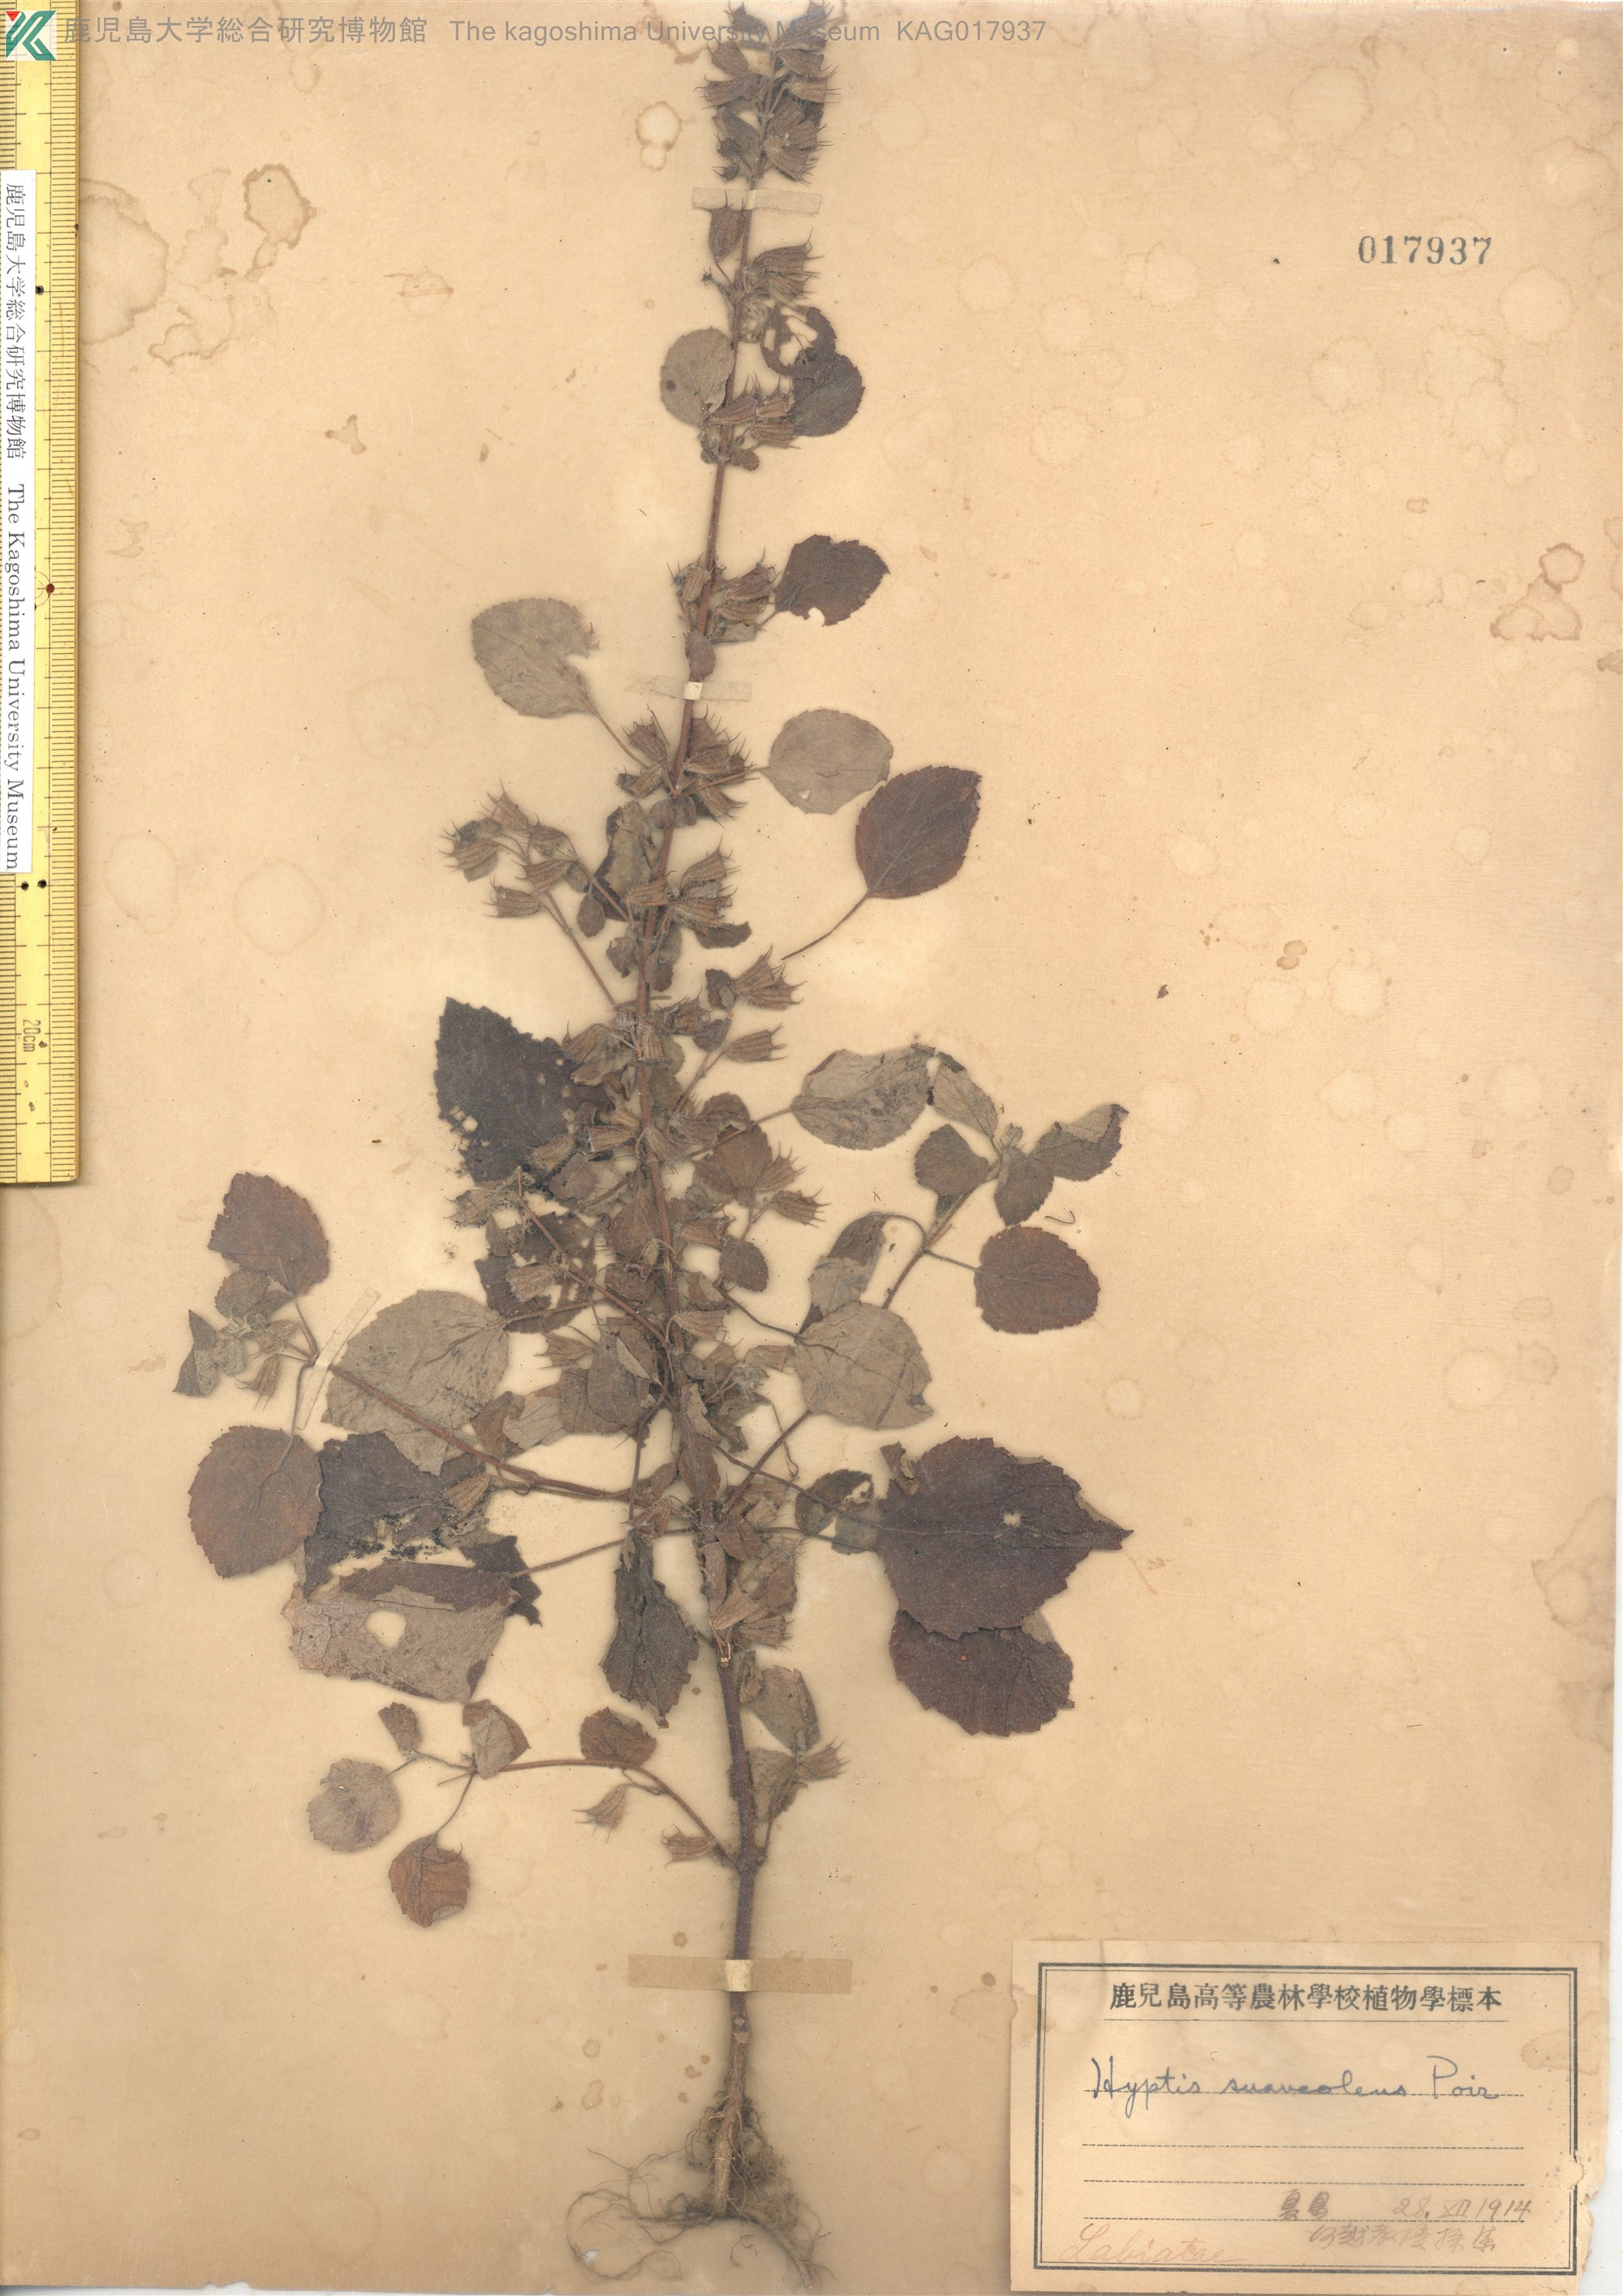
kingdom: Plantae
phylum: Tracheophyta
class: Magnoliopsida
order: Lamiales
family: Lamiaceae
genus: Mesosphaerum
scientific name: Mesosphaerum suaveolens
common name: Pignut
